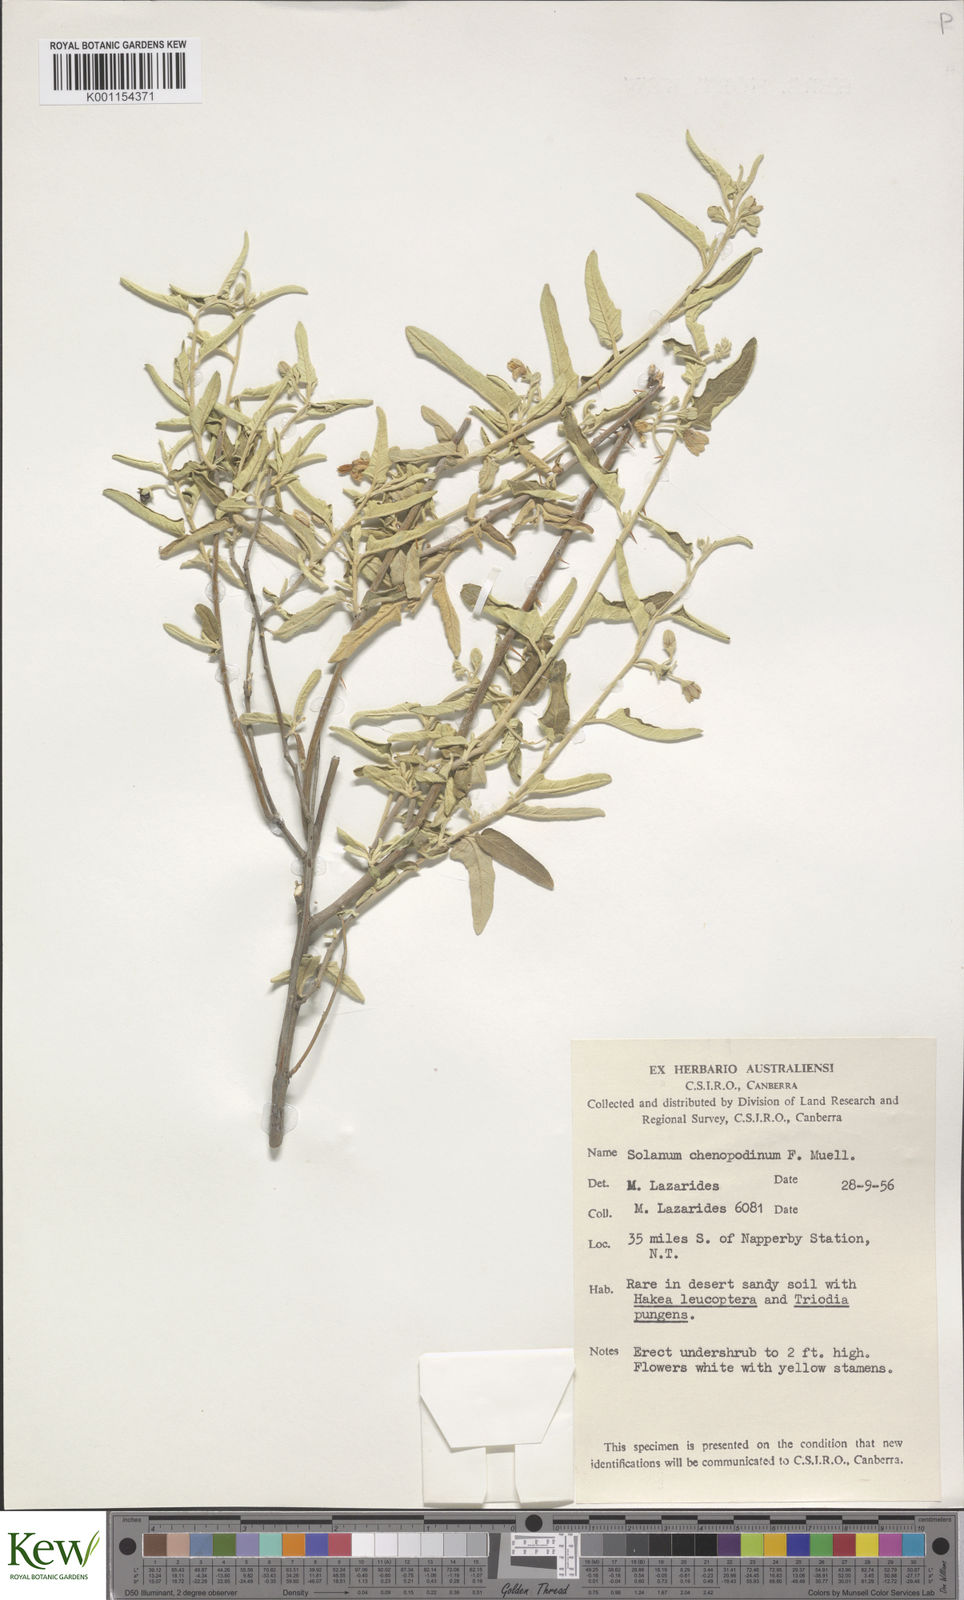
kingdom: Plantae
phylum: Tracheophyta
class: Magnoliopsida
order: Solanales
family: Solanaceae
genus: Solanum
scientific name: Solanum chenopodinum
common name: Goosefoot potato-bush
